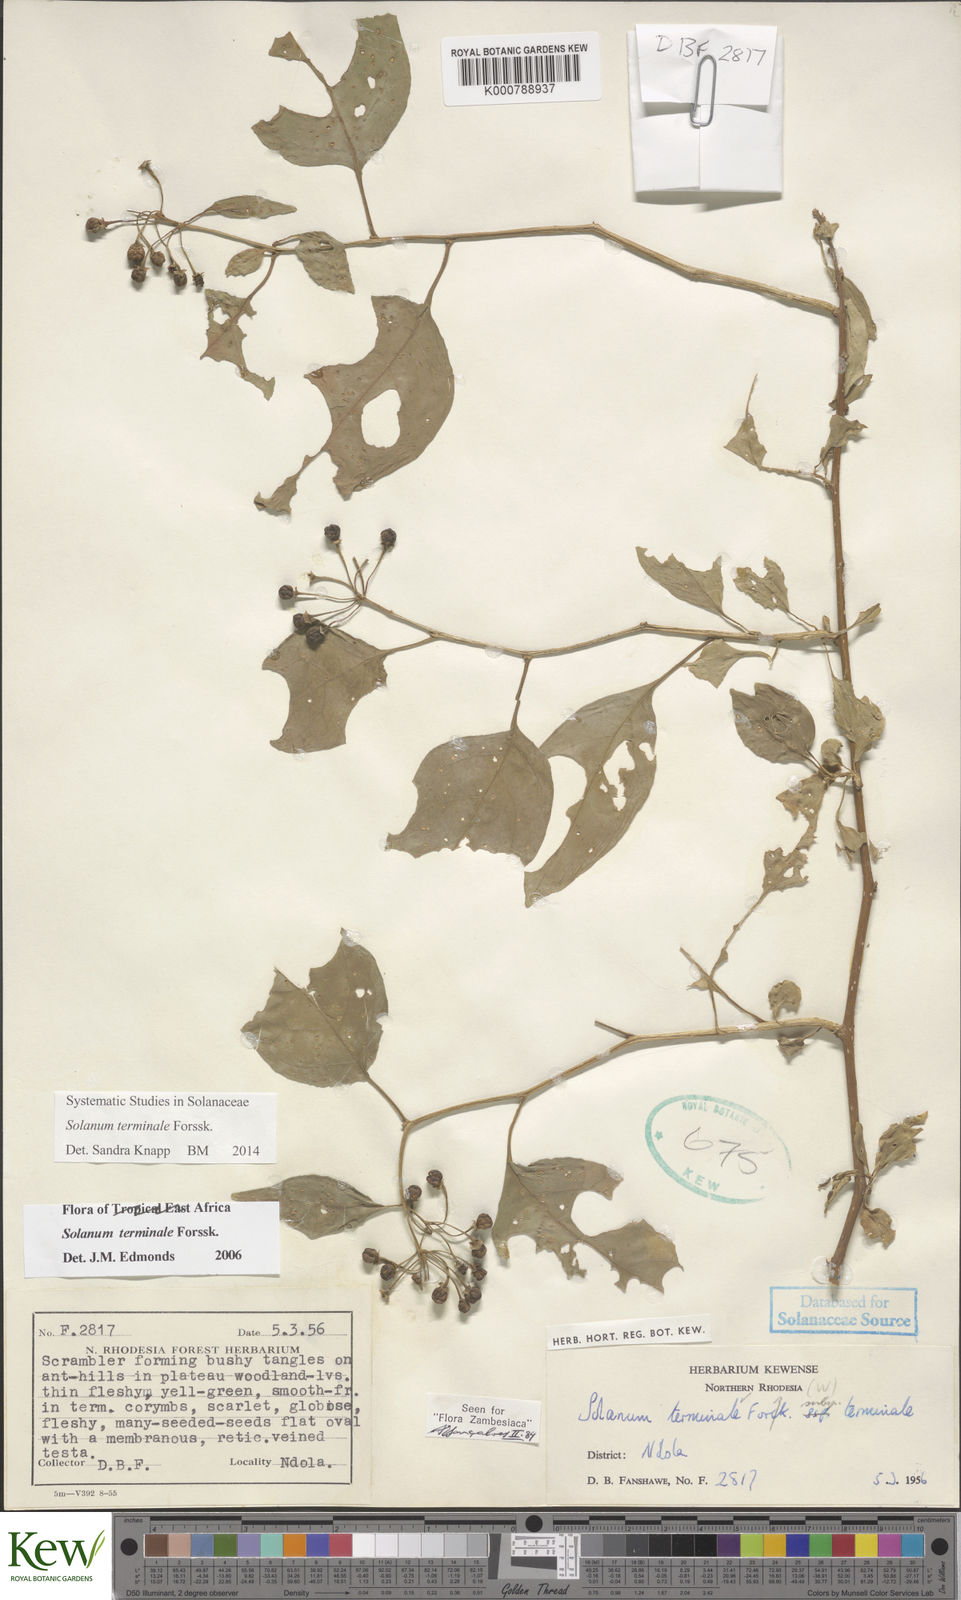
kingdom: Plantae
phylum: Tracheophyta
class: Magnoliopsida
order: Solanales
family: Solanaceae
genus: Solanum
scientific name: Solanum terminale
